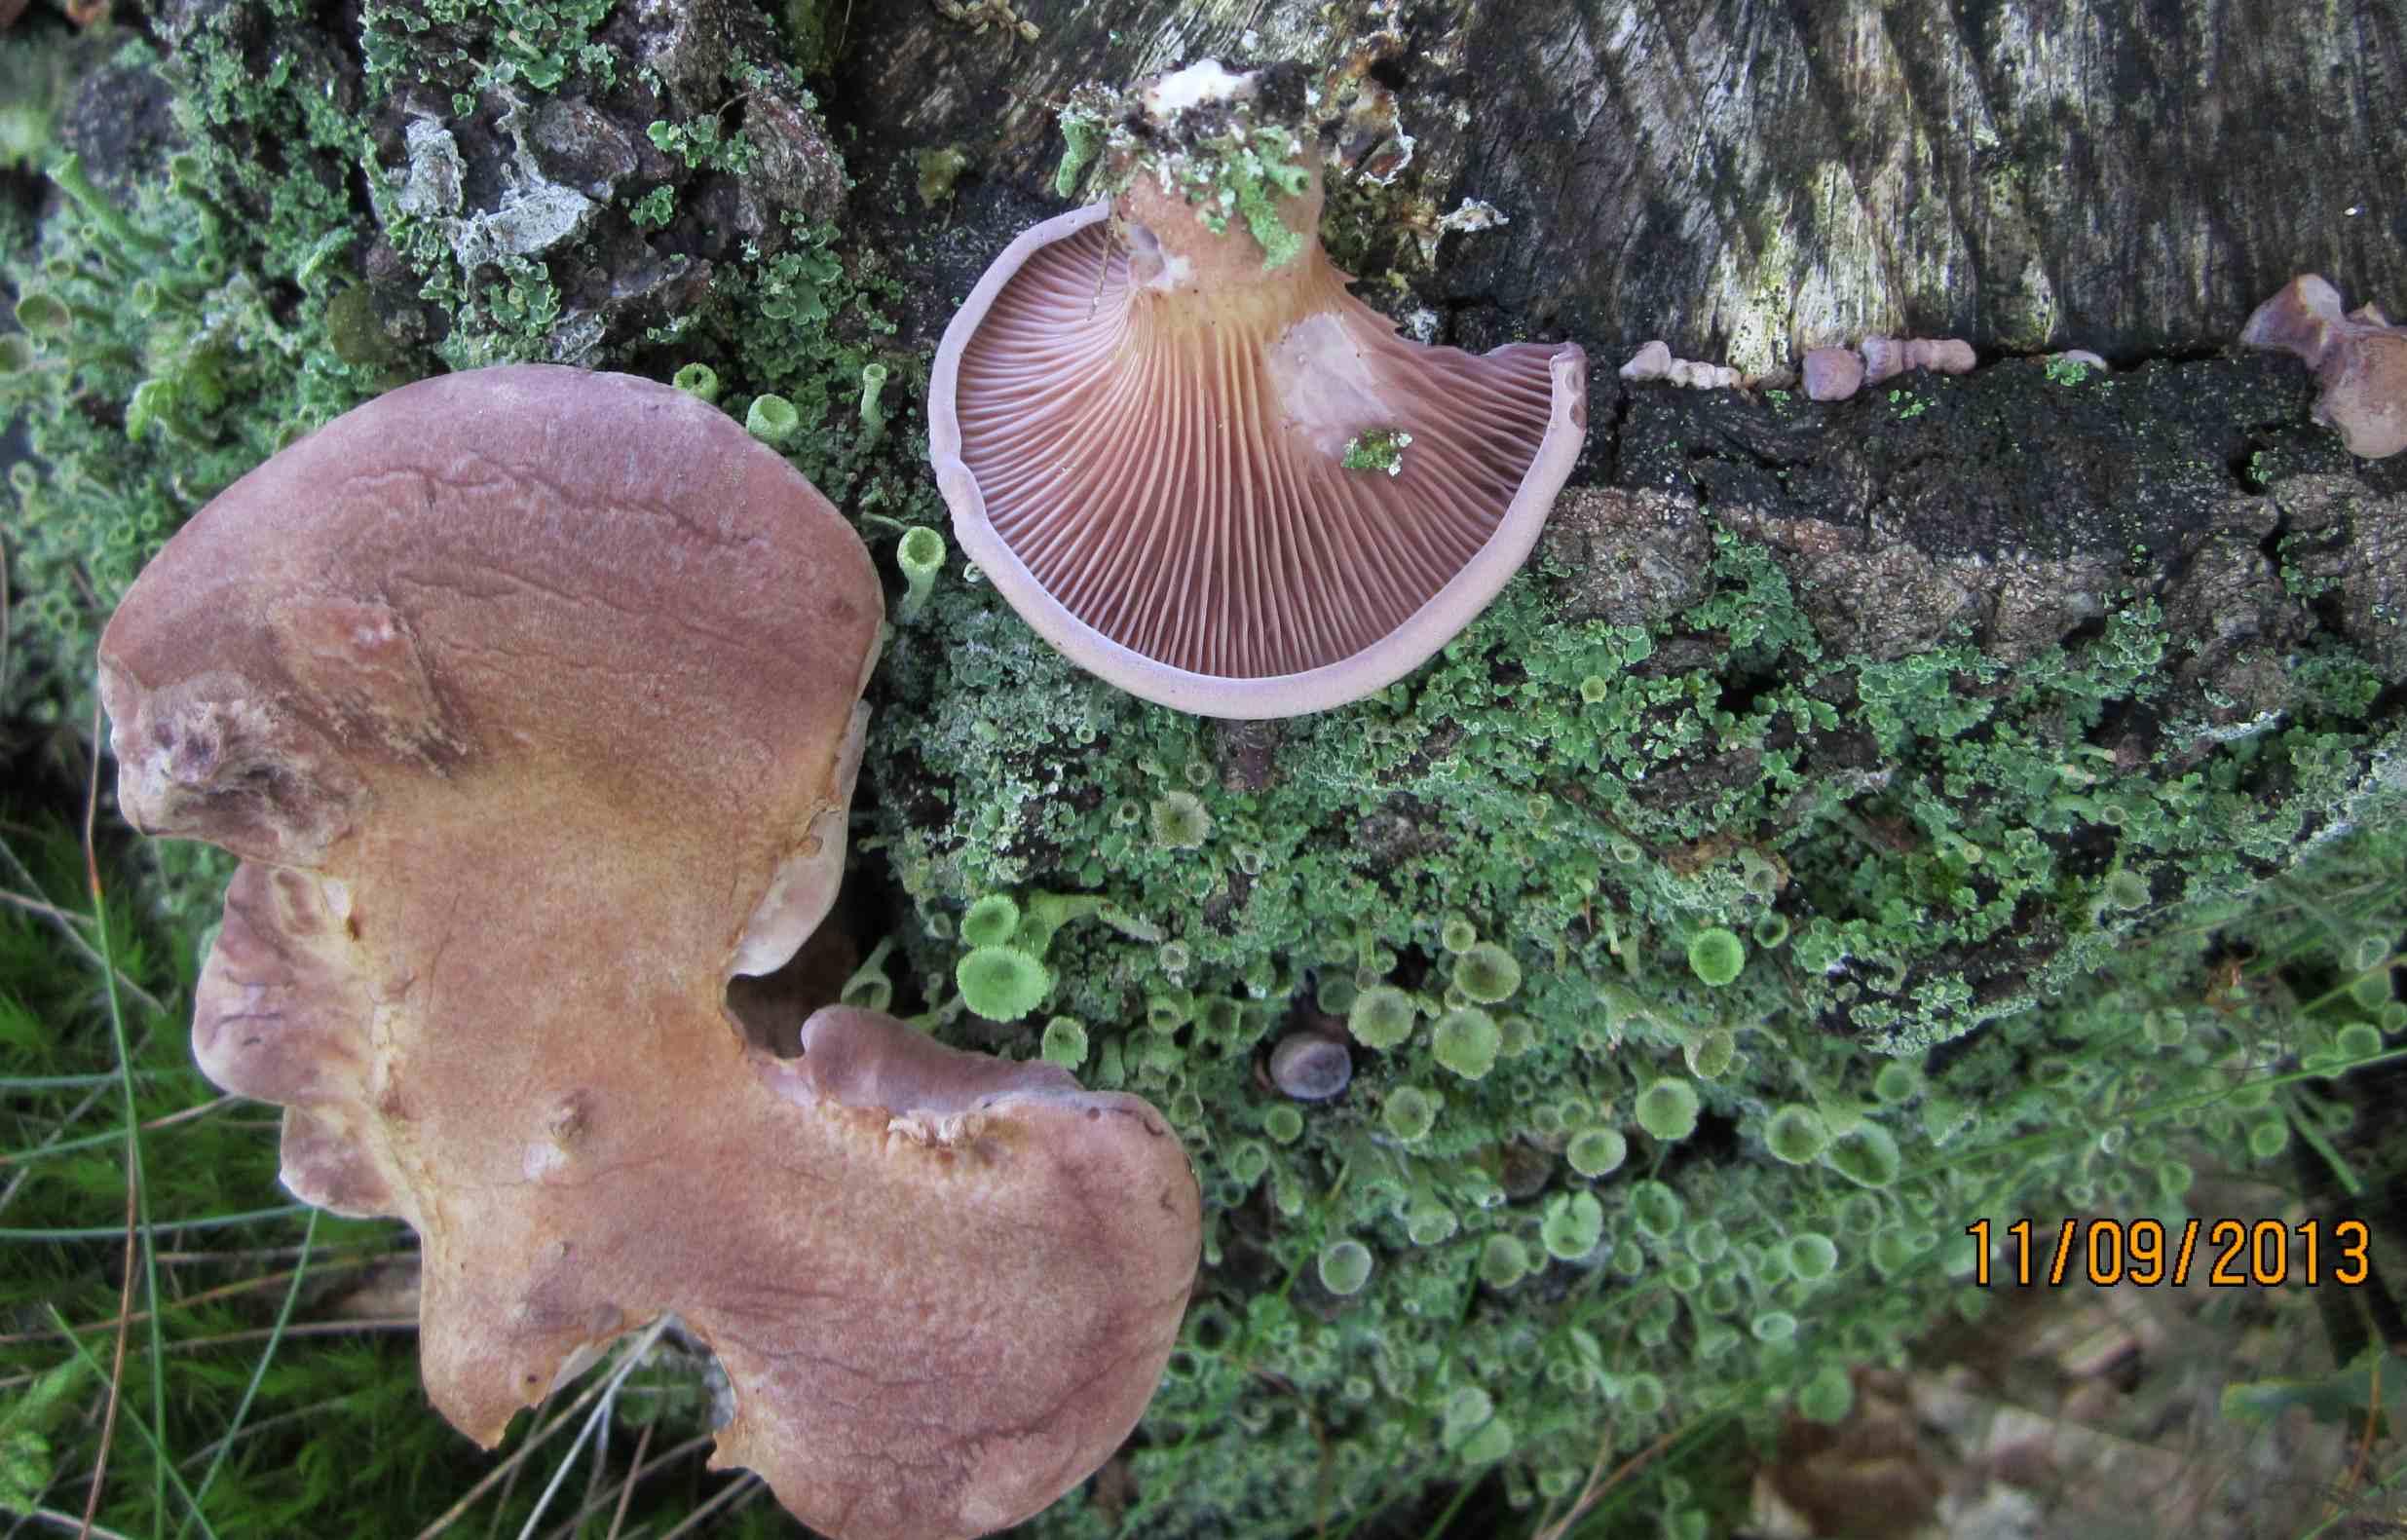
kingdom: Fungi
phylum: Basidiomycota
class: Agaricomycetes
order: Polyporales
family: Panaceae
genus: Panus
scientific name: Panus conchatus
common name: filtstokket læderhat
